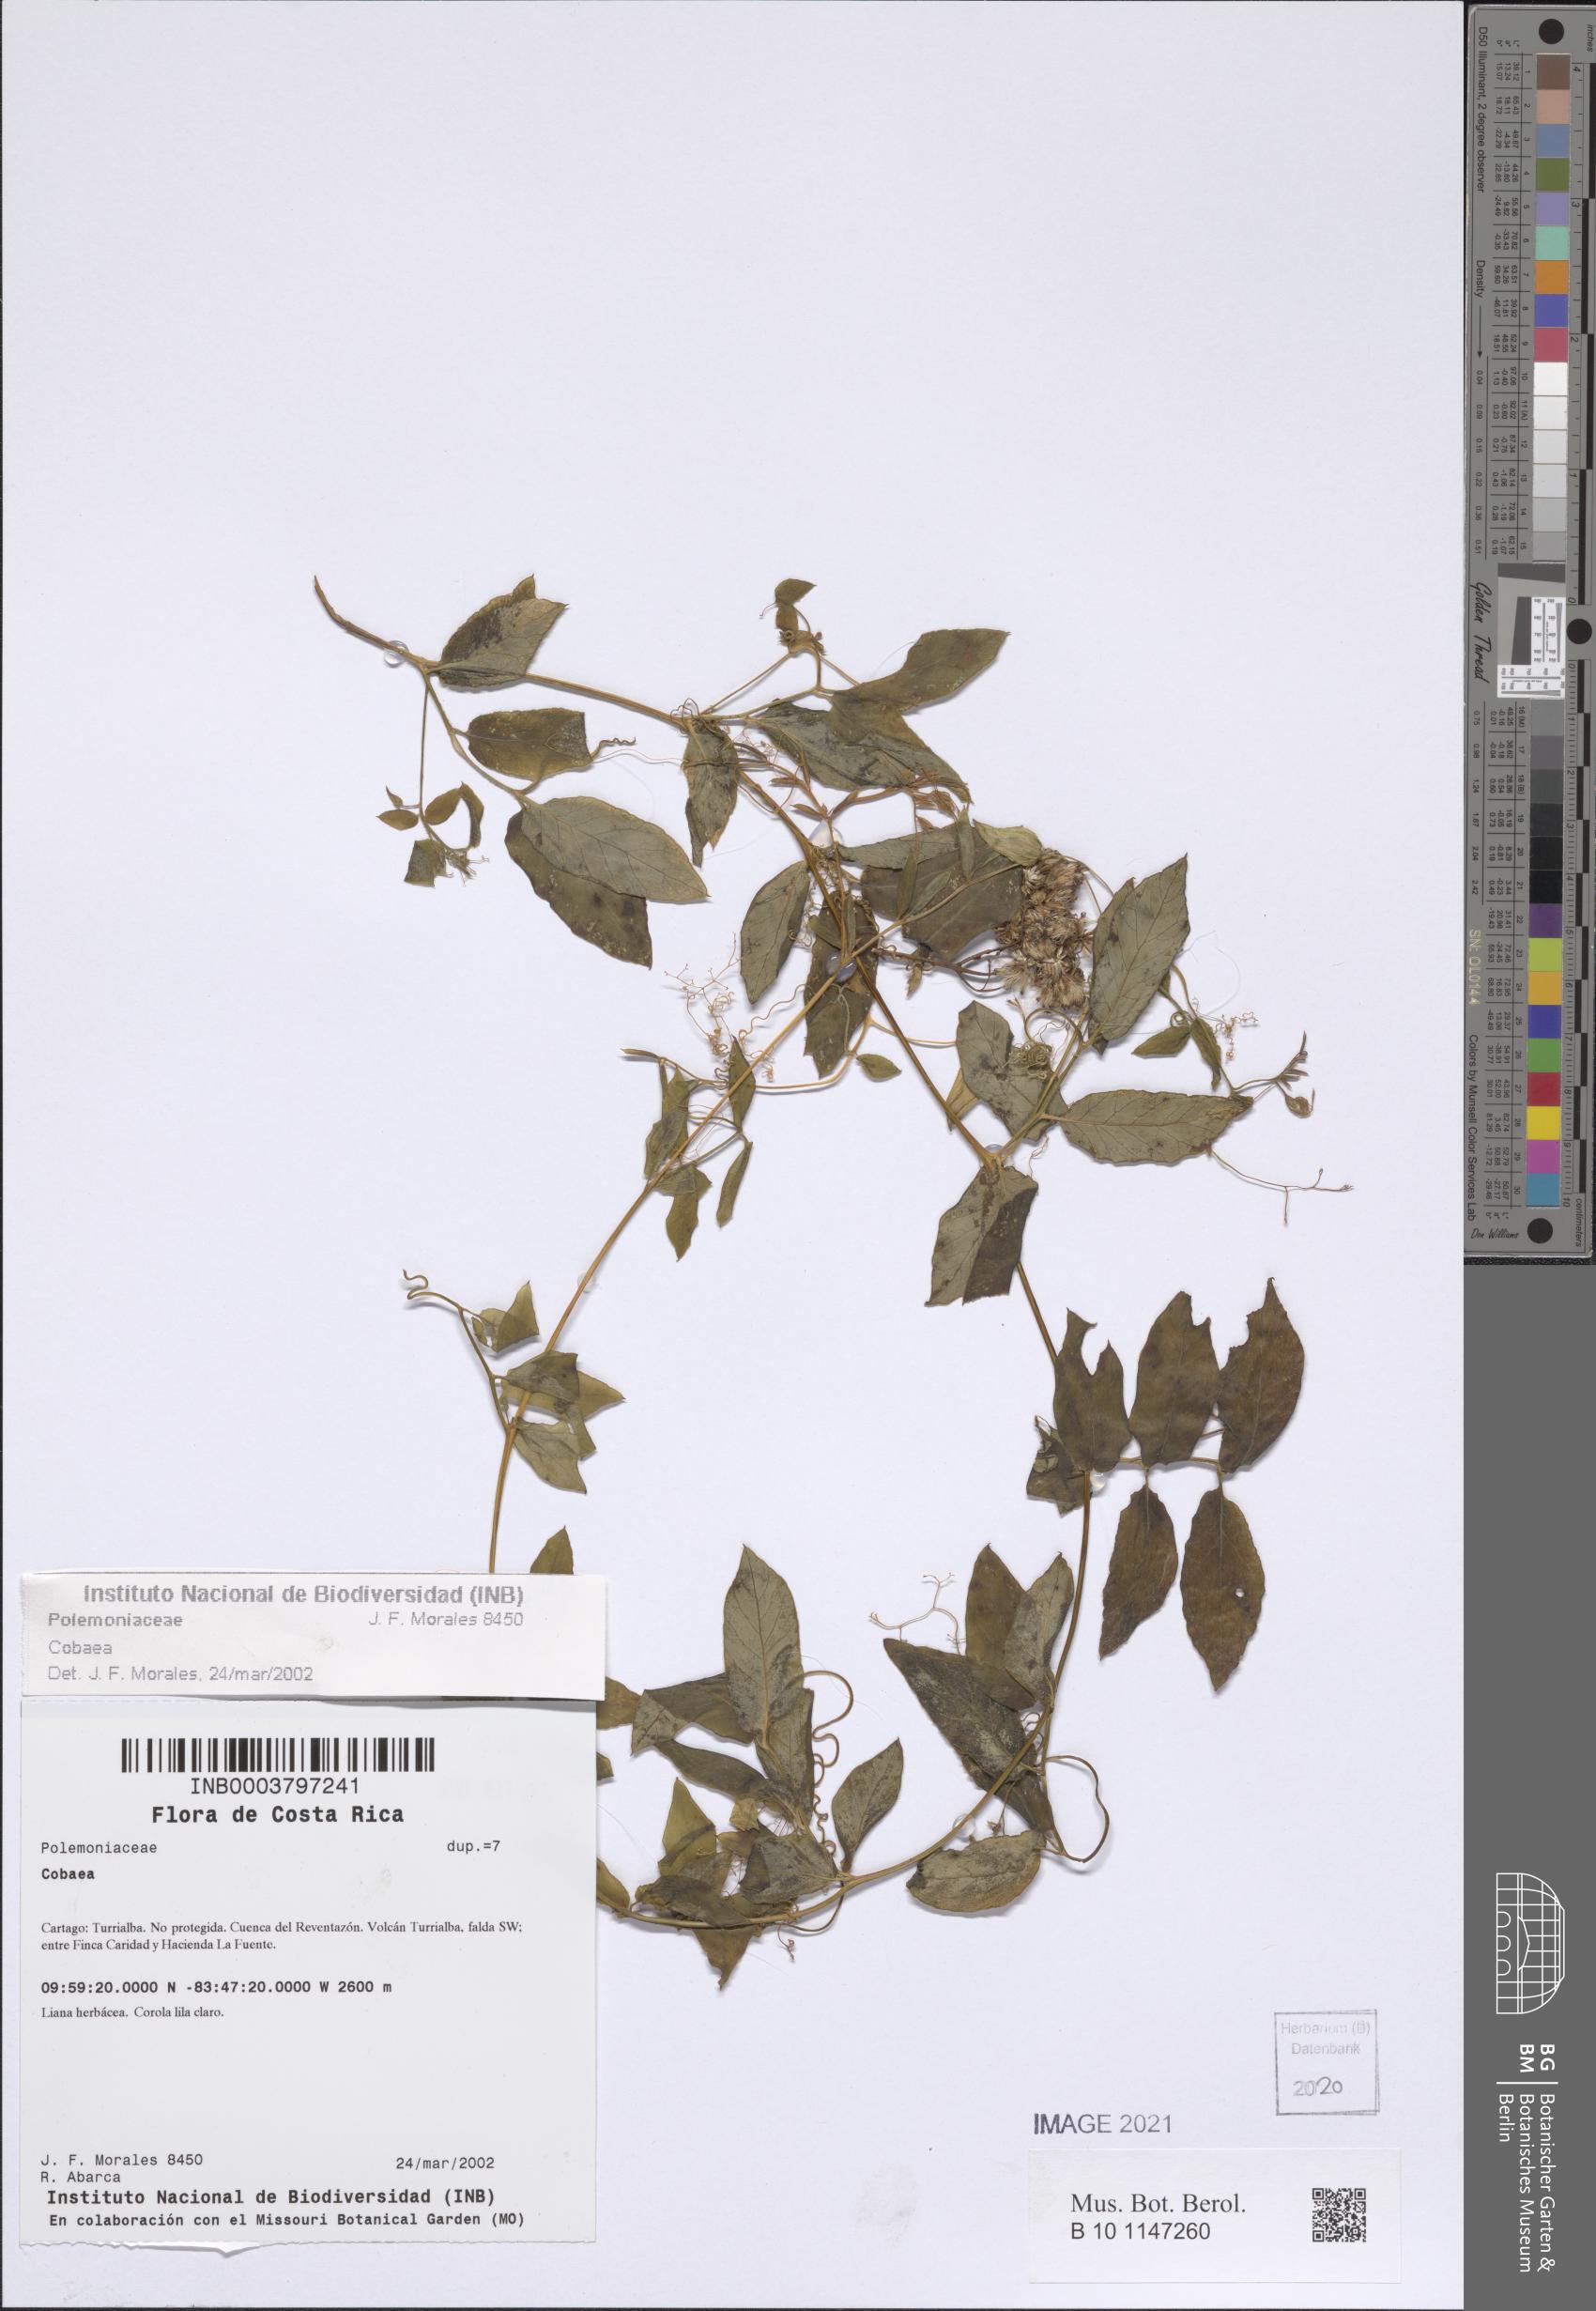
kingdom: Plantae
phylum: Tracheophyta
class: Magnoliopsida
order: Ericales
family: Polemoniaceae
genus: Cobaea
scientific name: Cobaea
